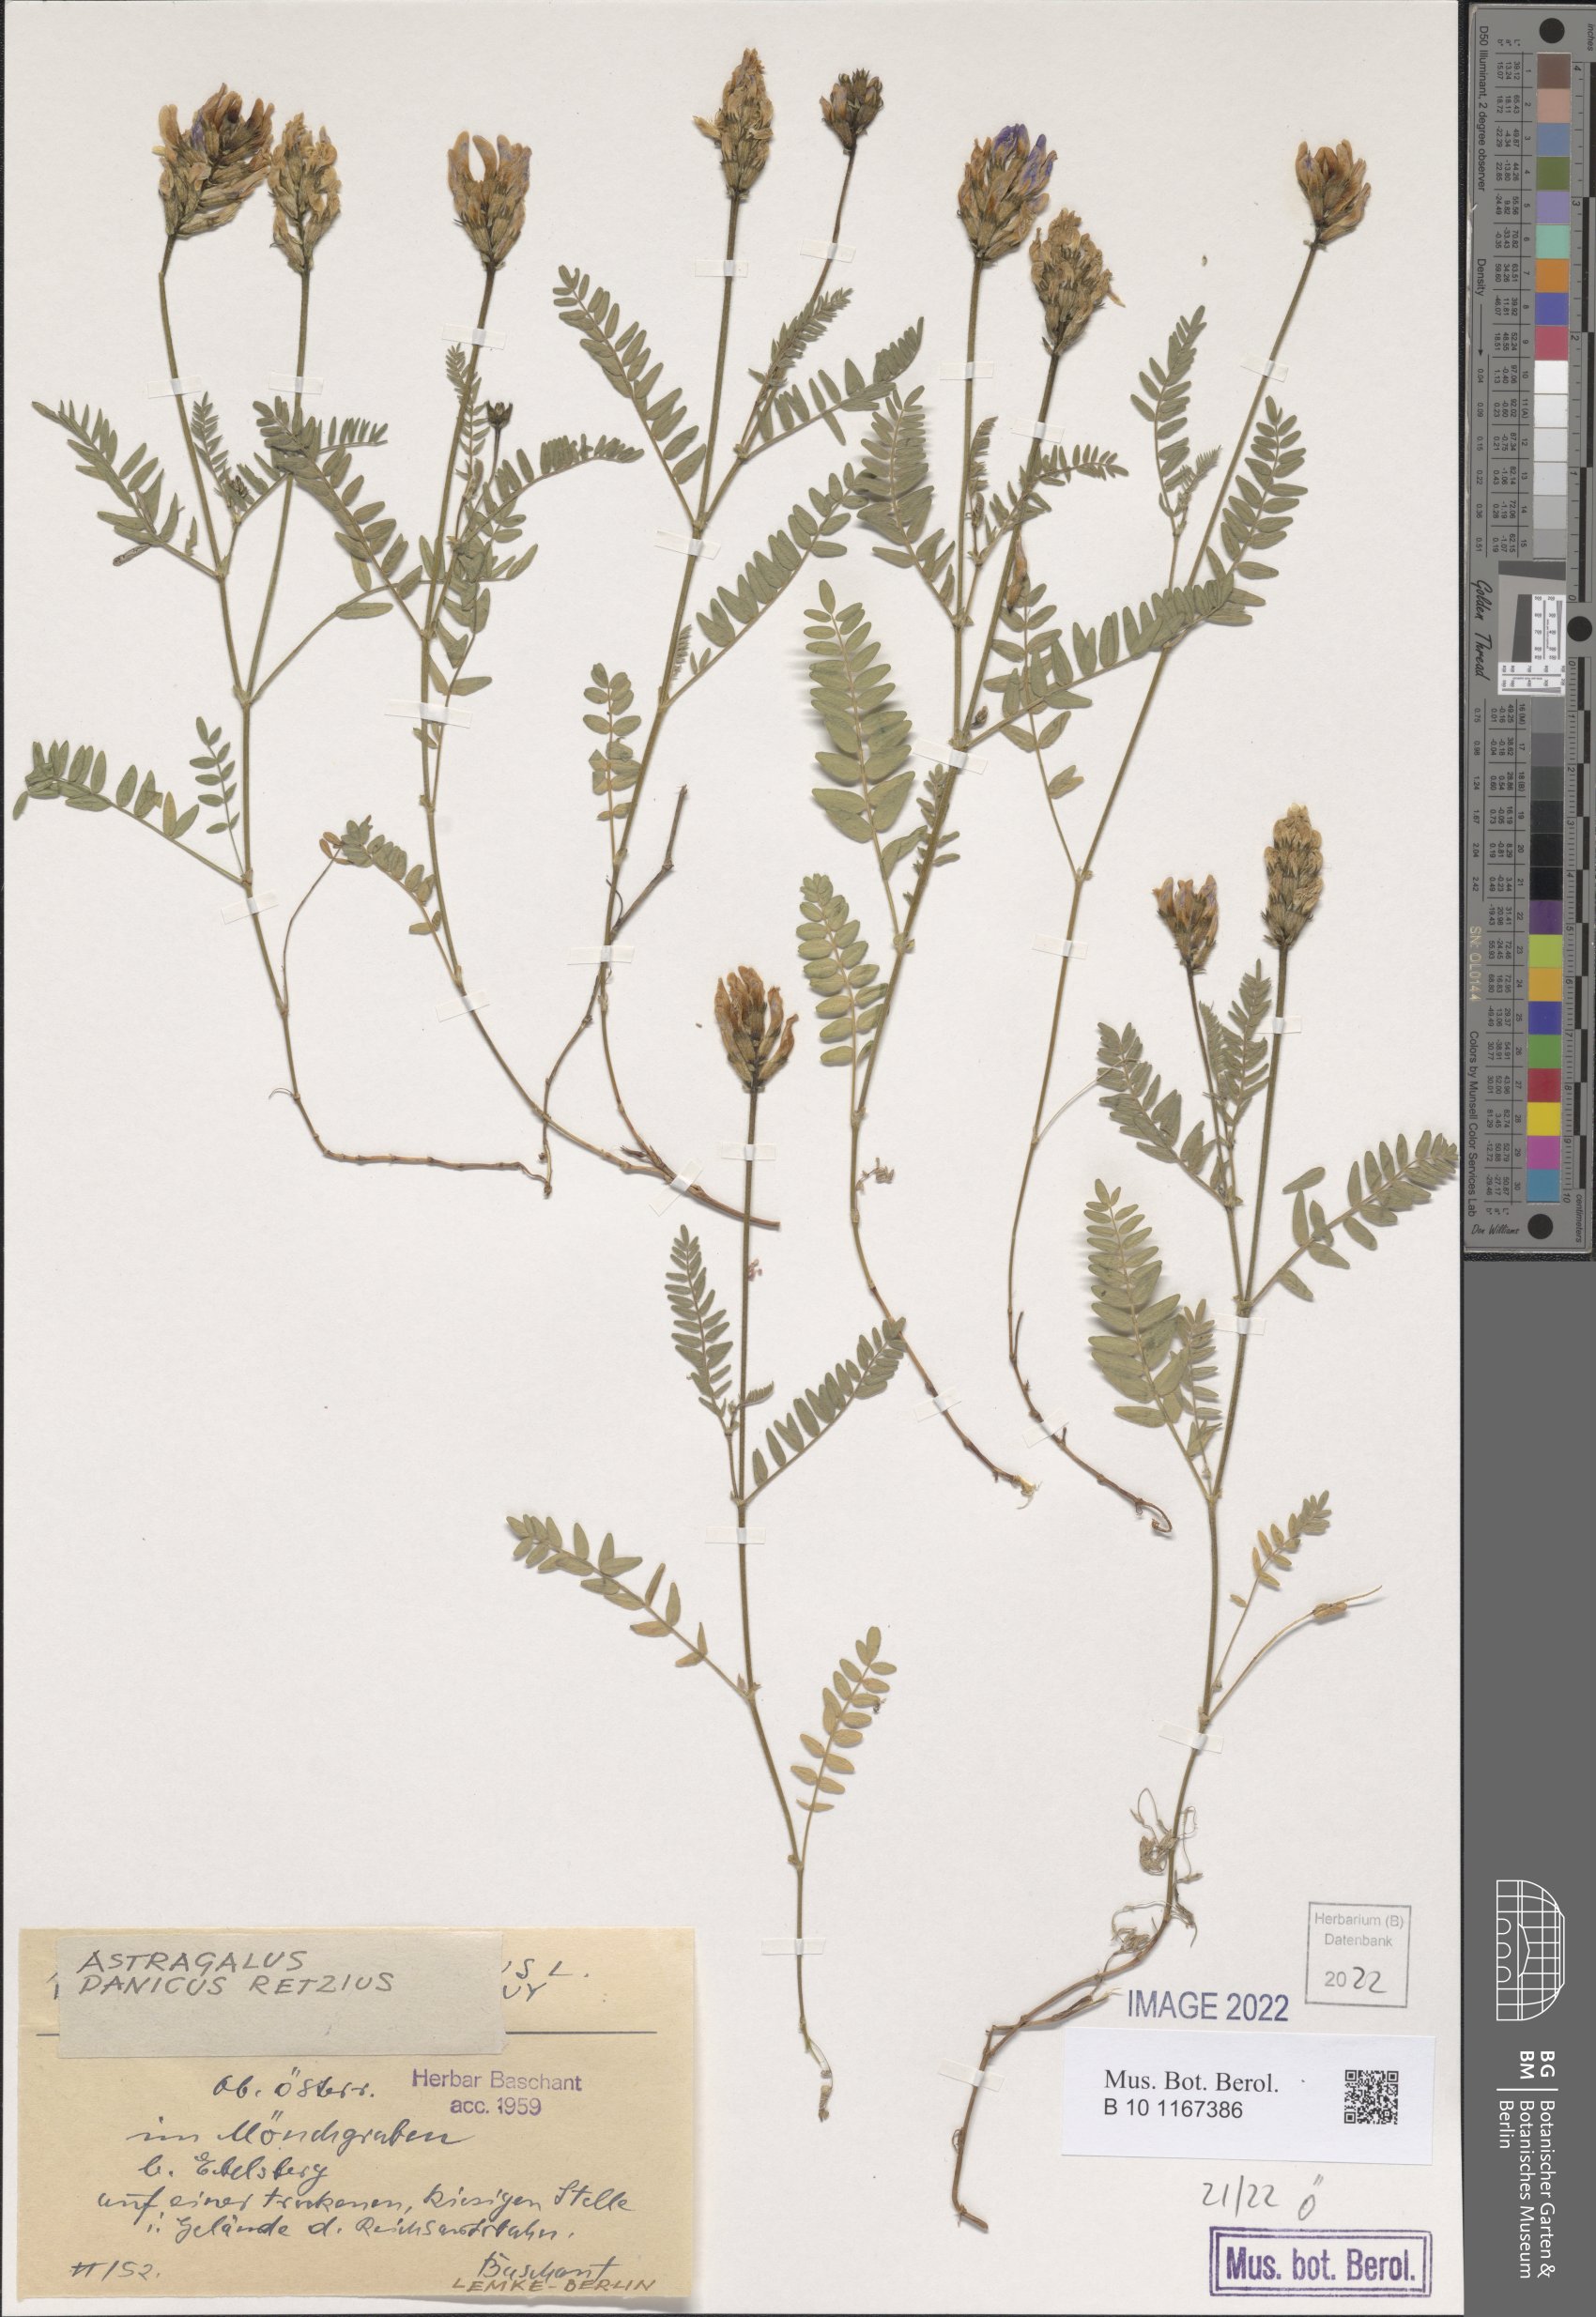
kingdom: Plantae
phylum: Tracheophyta
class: Magnoliopsida
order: Fabales
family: Fabaceae
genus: Astragalus
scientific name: Astragalus danicus
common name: Purple milk-vetch
